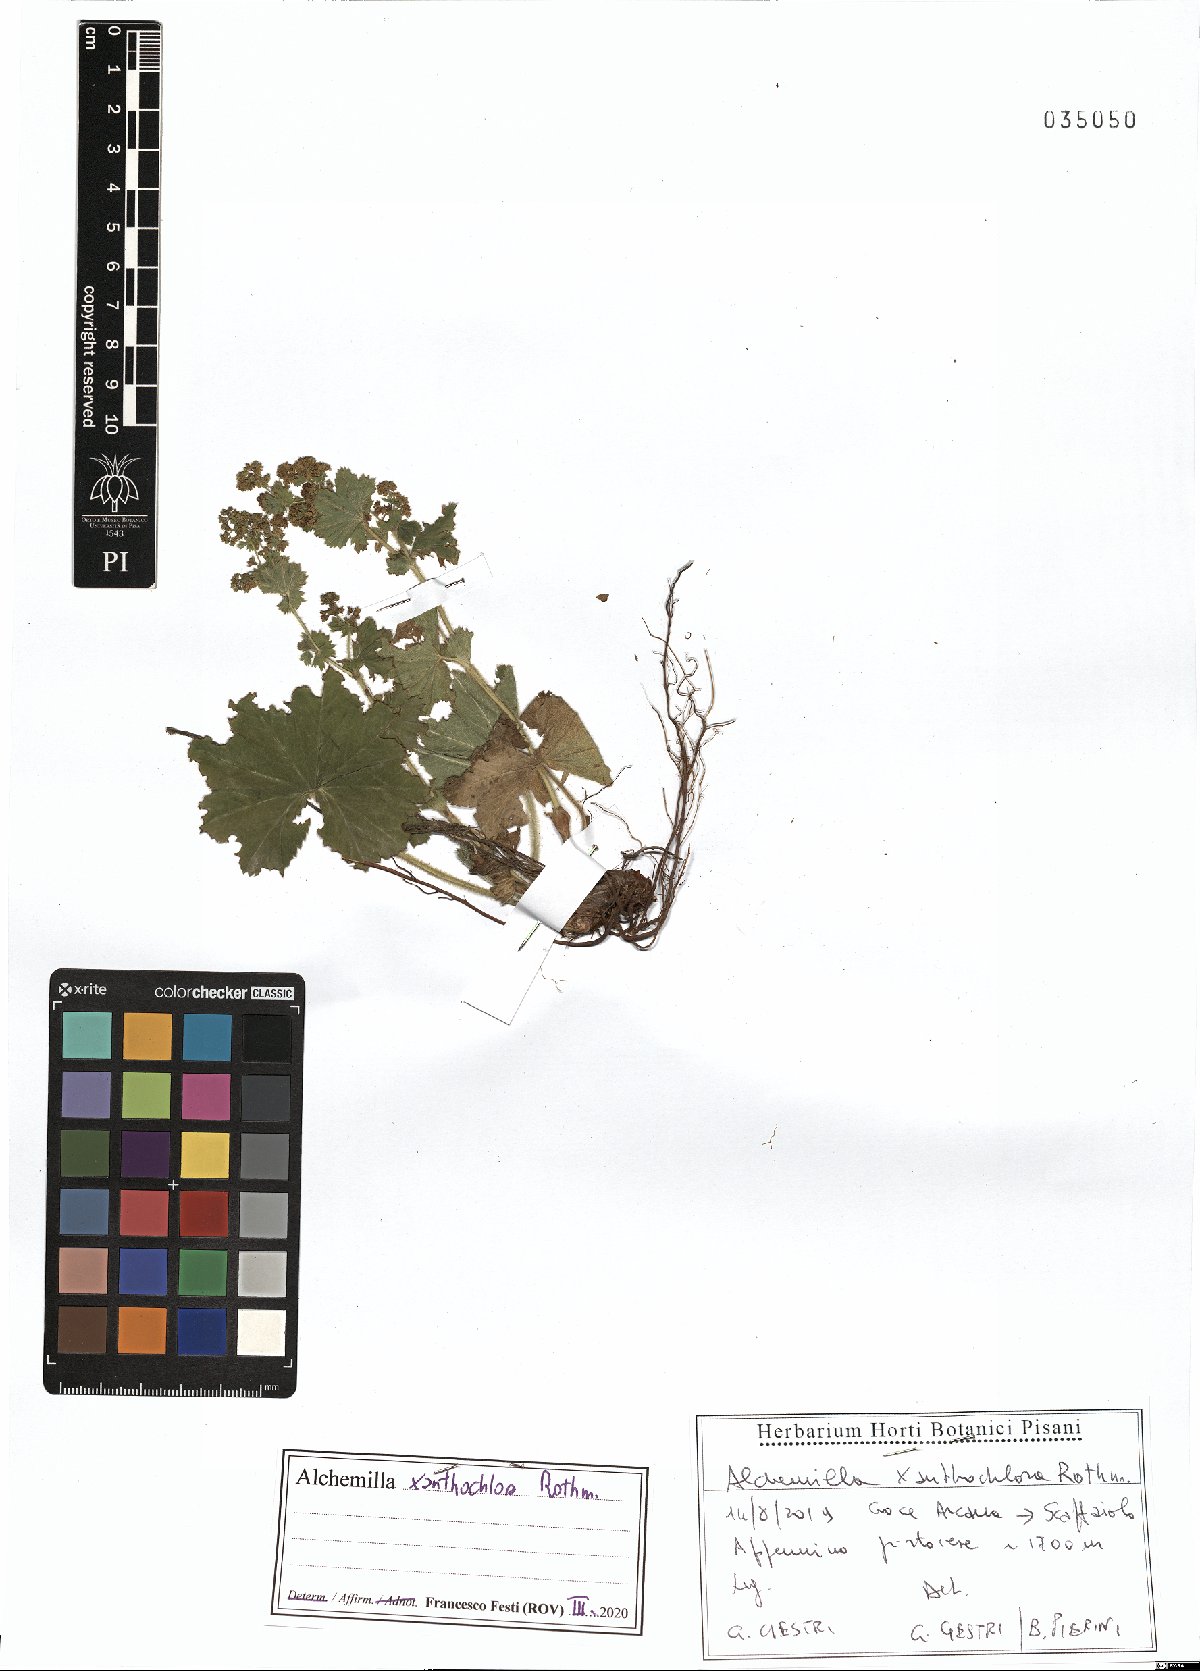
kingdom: Plantae
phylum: Tracheophyta
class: Magnoliopsida
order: Rosales
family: Rosaceae
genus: Alchemilla
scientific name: Alchemilla xanthochlora
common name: Intermediate lady's-mantle
